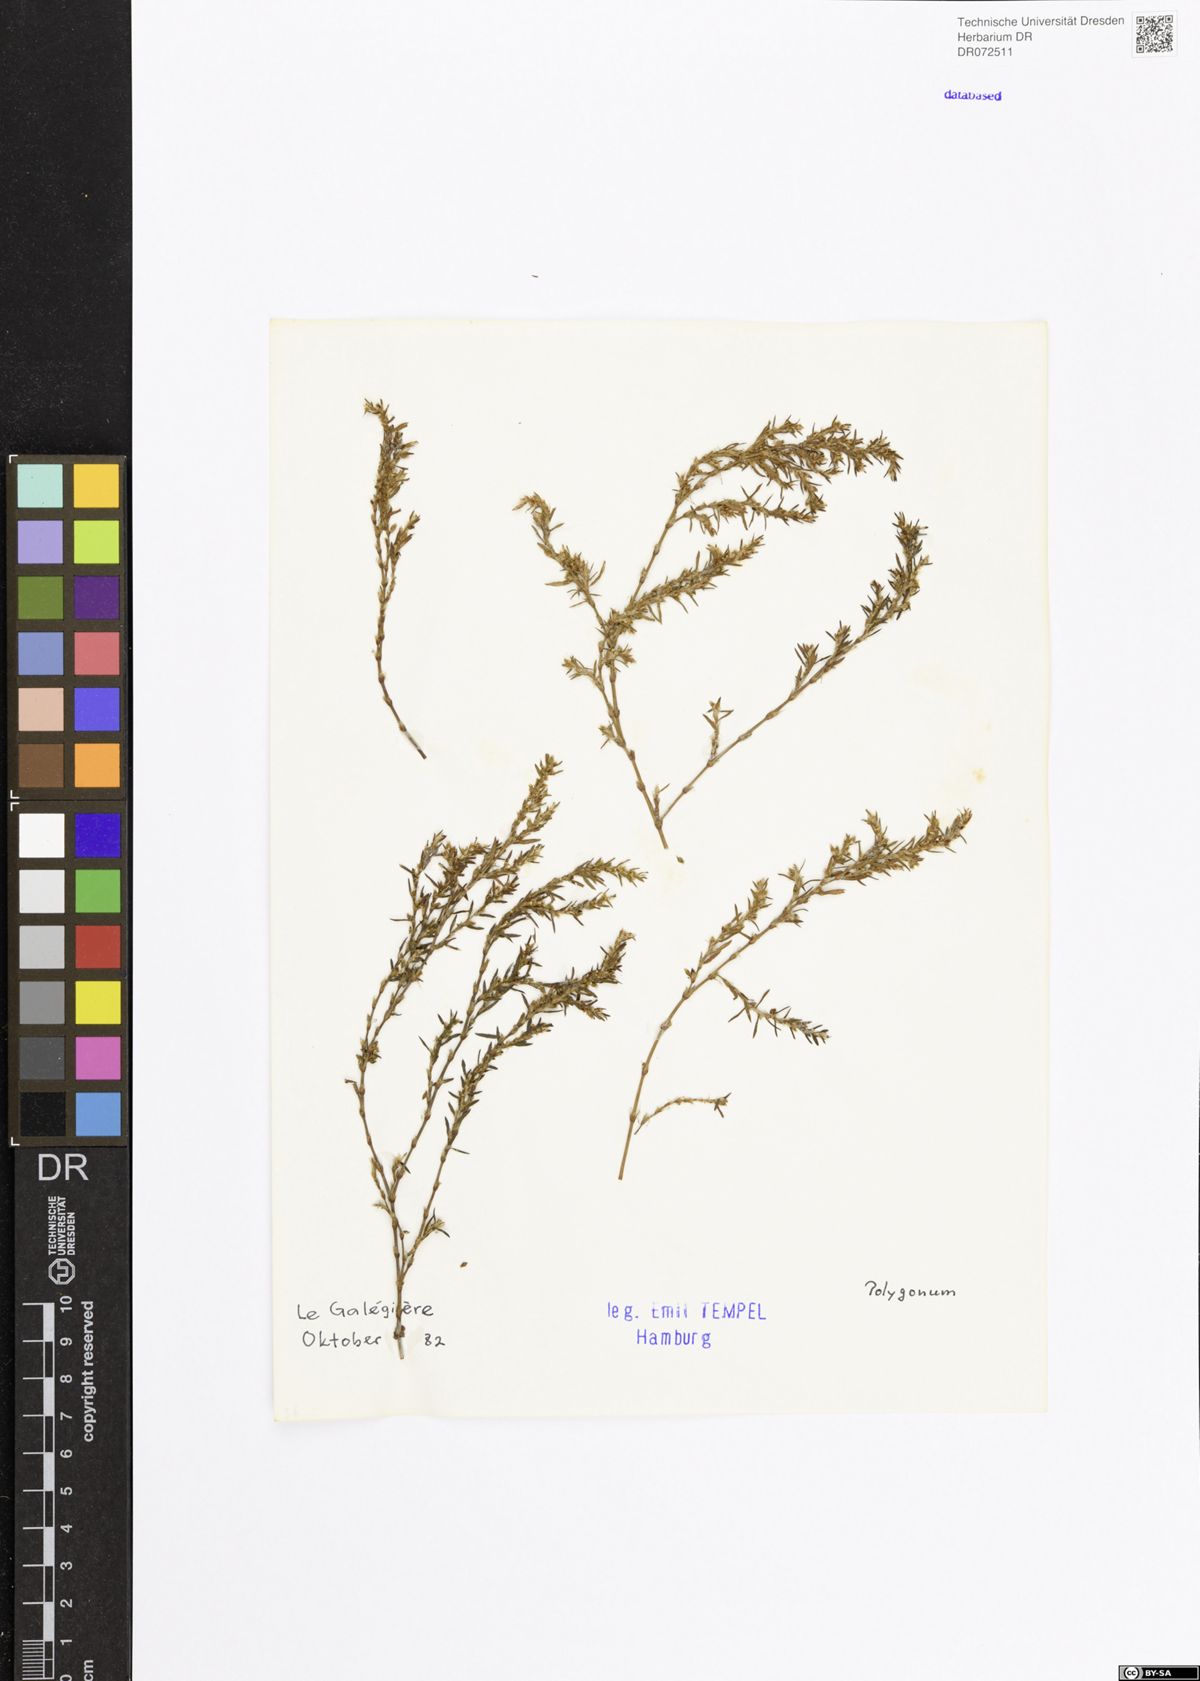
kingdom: Plantae
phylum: Tracheophyta
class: Magnoliopsida
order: Caryophyllales
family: Polygonaceae
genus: Polygonum
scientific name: Polygonum
